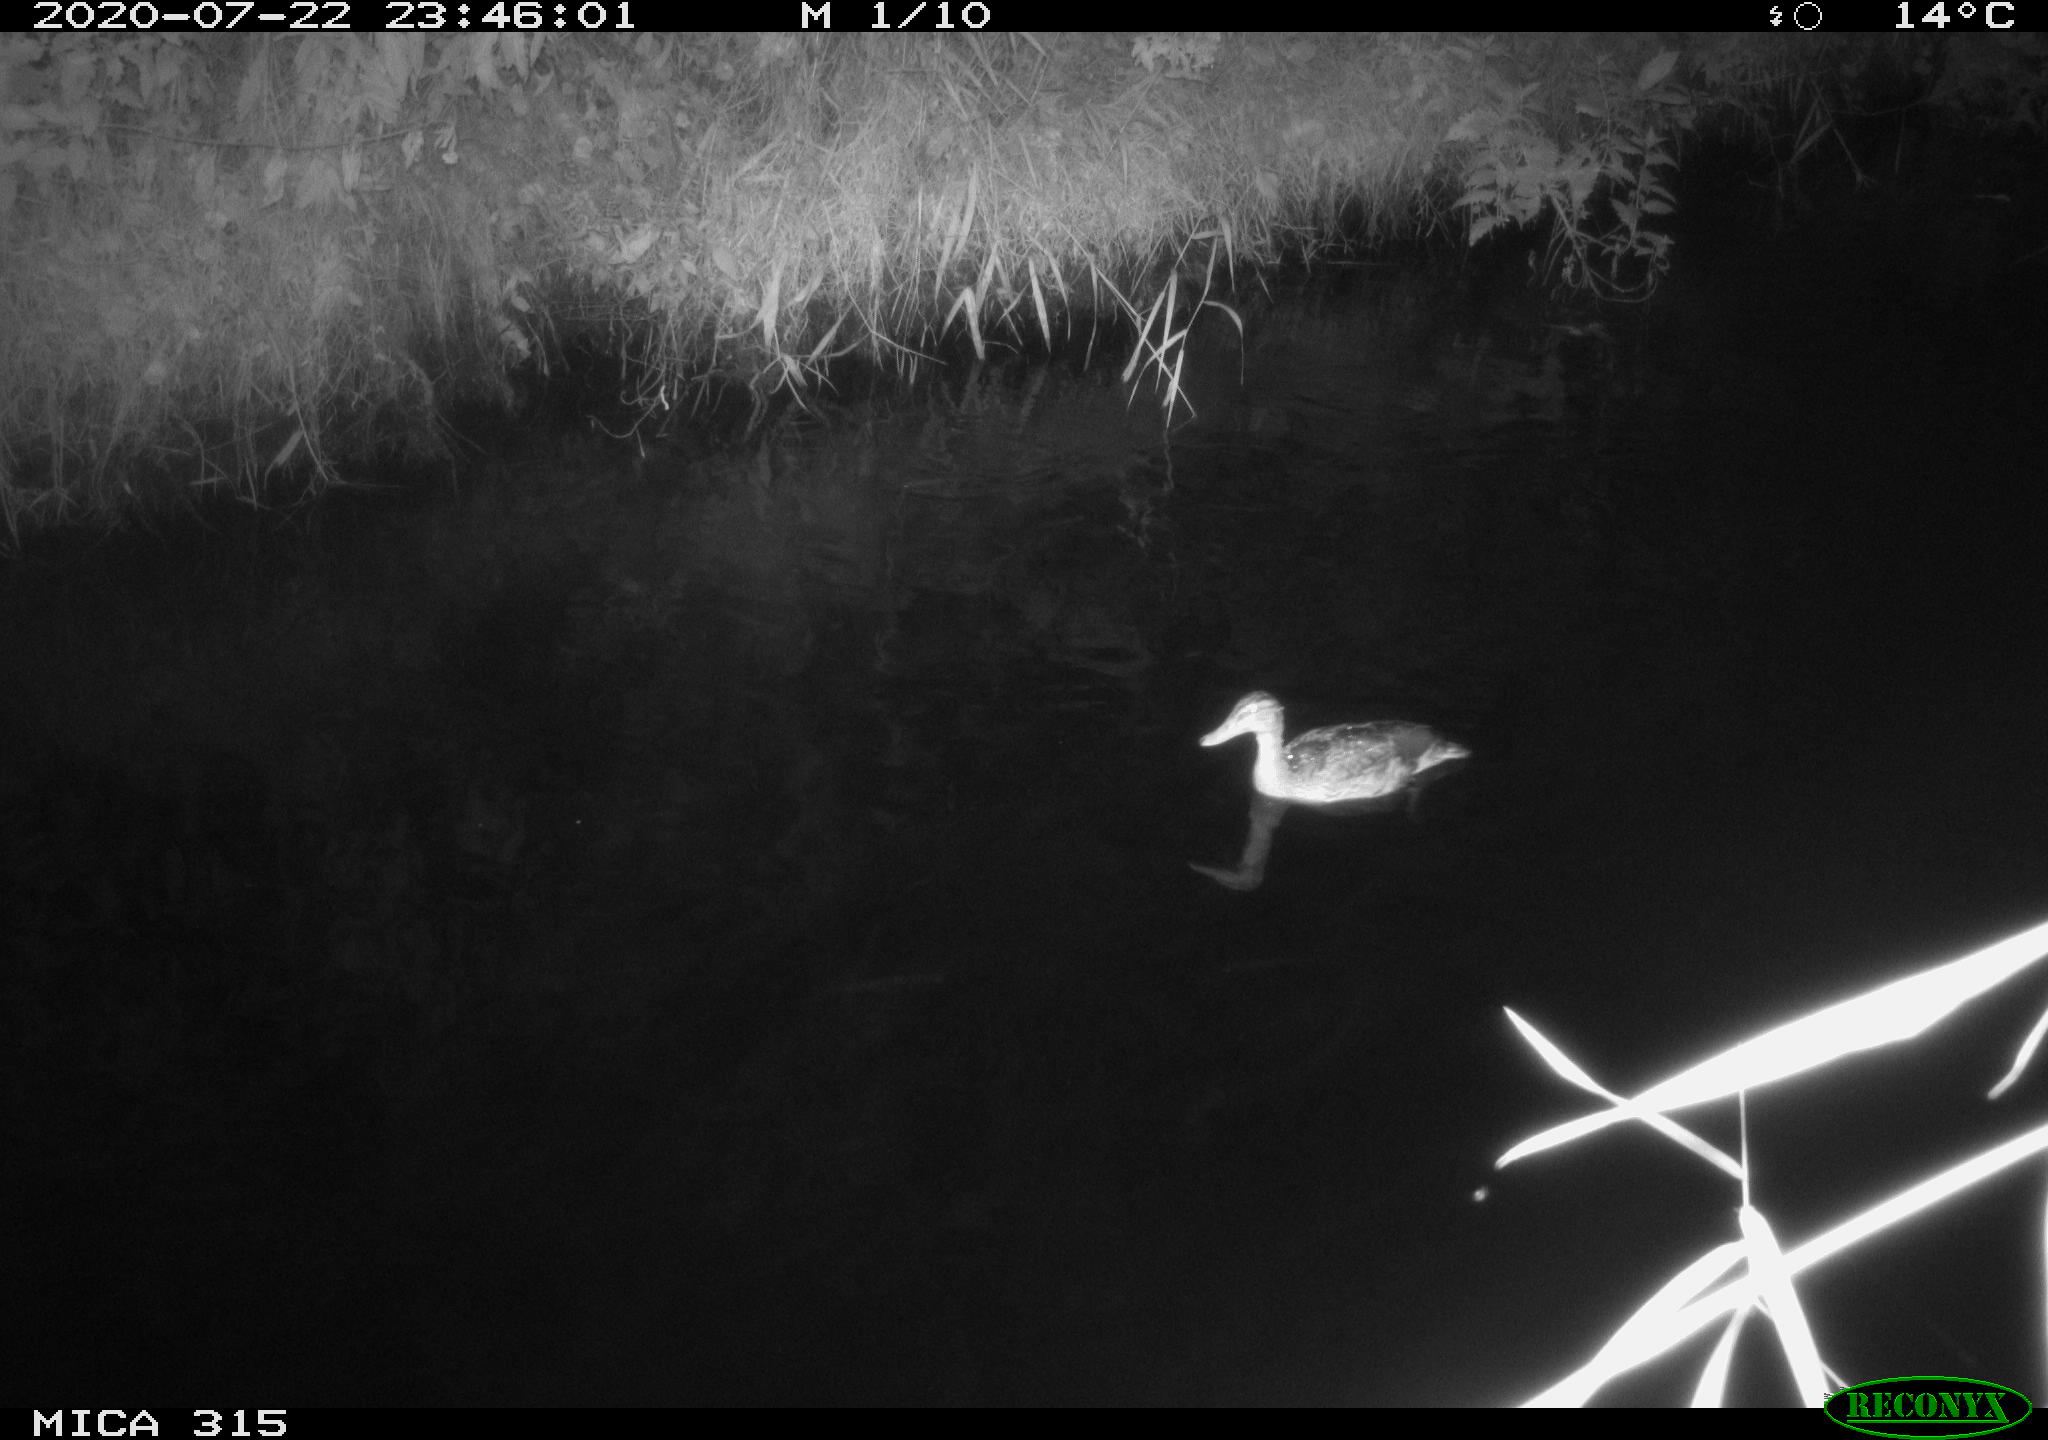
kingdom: Animalia
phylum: Chordata
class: Mammalia
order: Rodentia
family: Muridae
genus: Rattus
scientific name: Rattus norvegicus
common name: Brown rat
